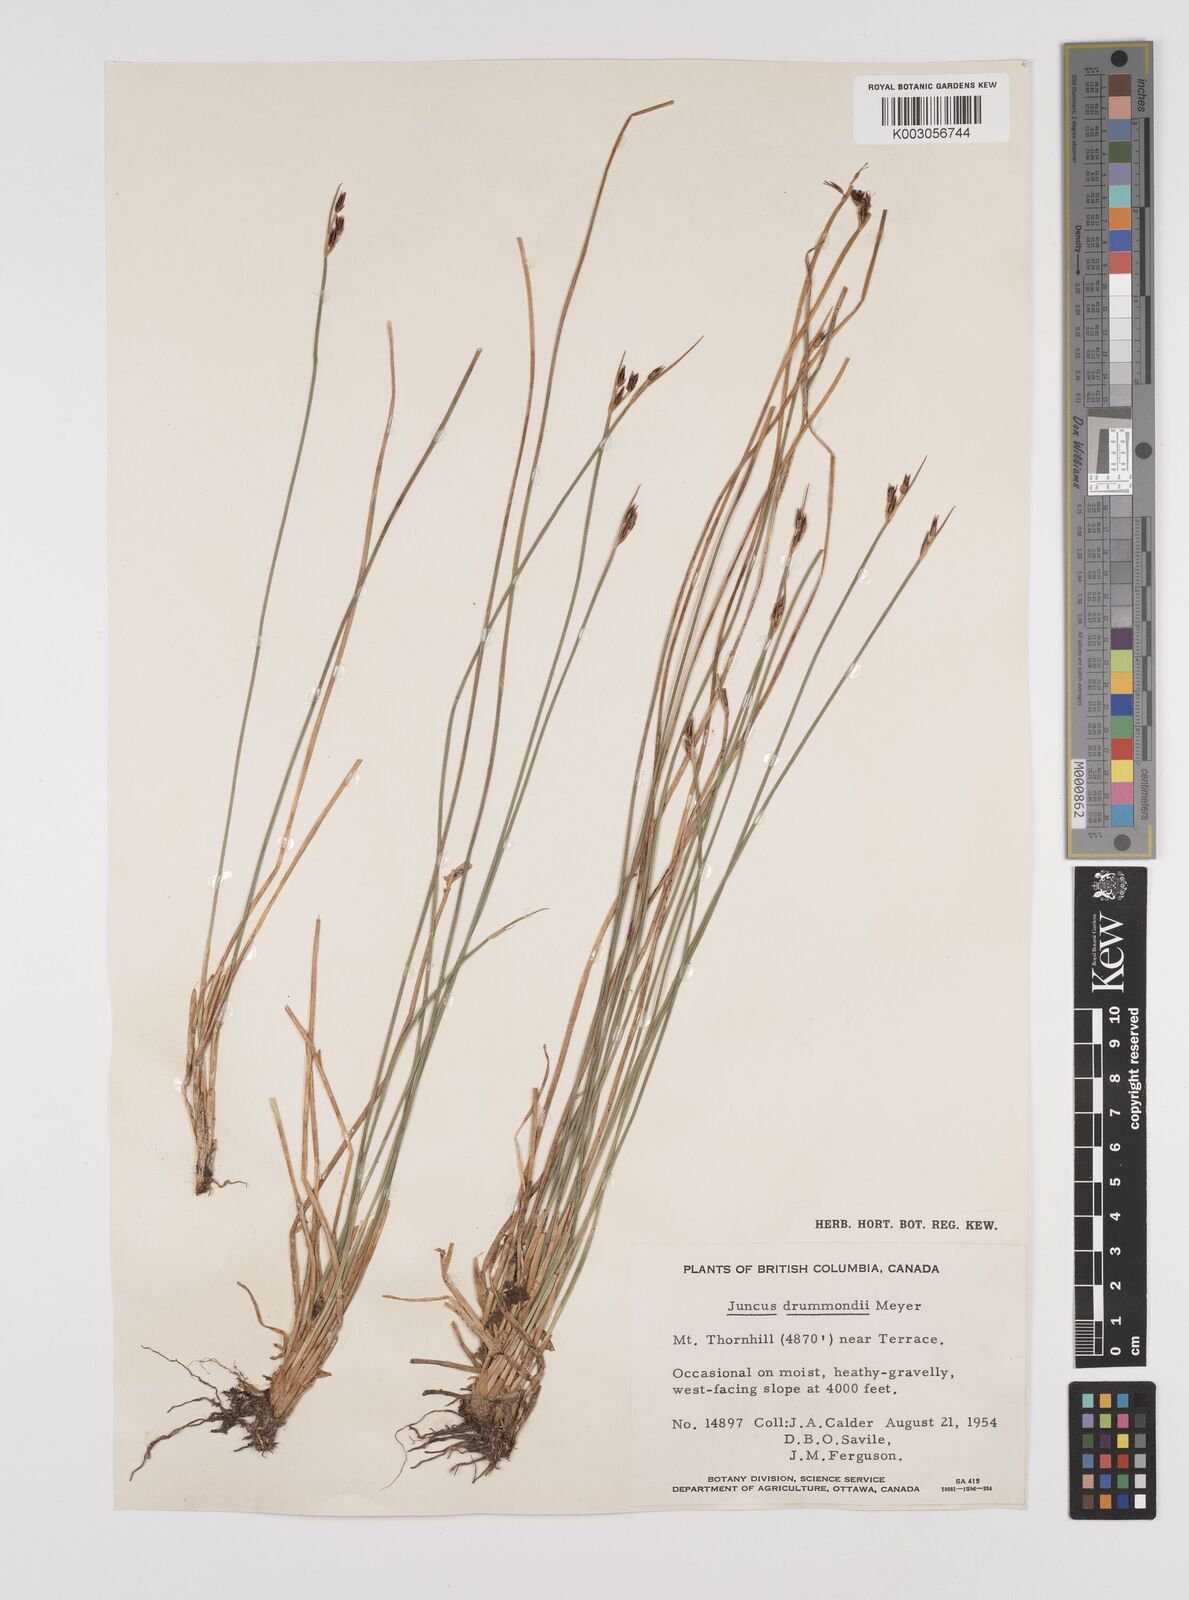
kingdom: Plantae
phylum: Tracheophyta
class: Liliopsida
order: Poales
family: Juncaceae
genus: Juncus
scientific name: Juncus drummondii
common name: Drummond's rush
